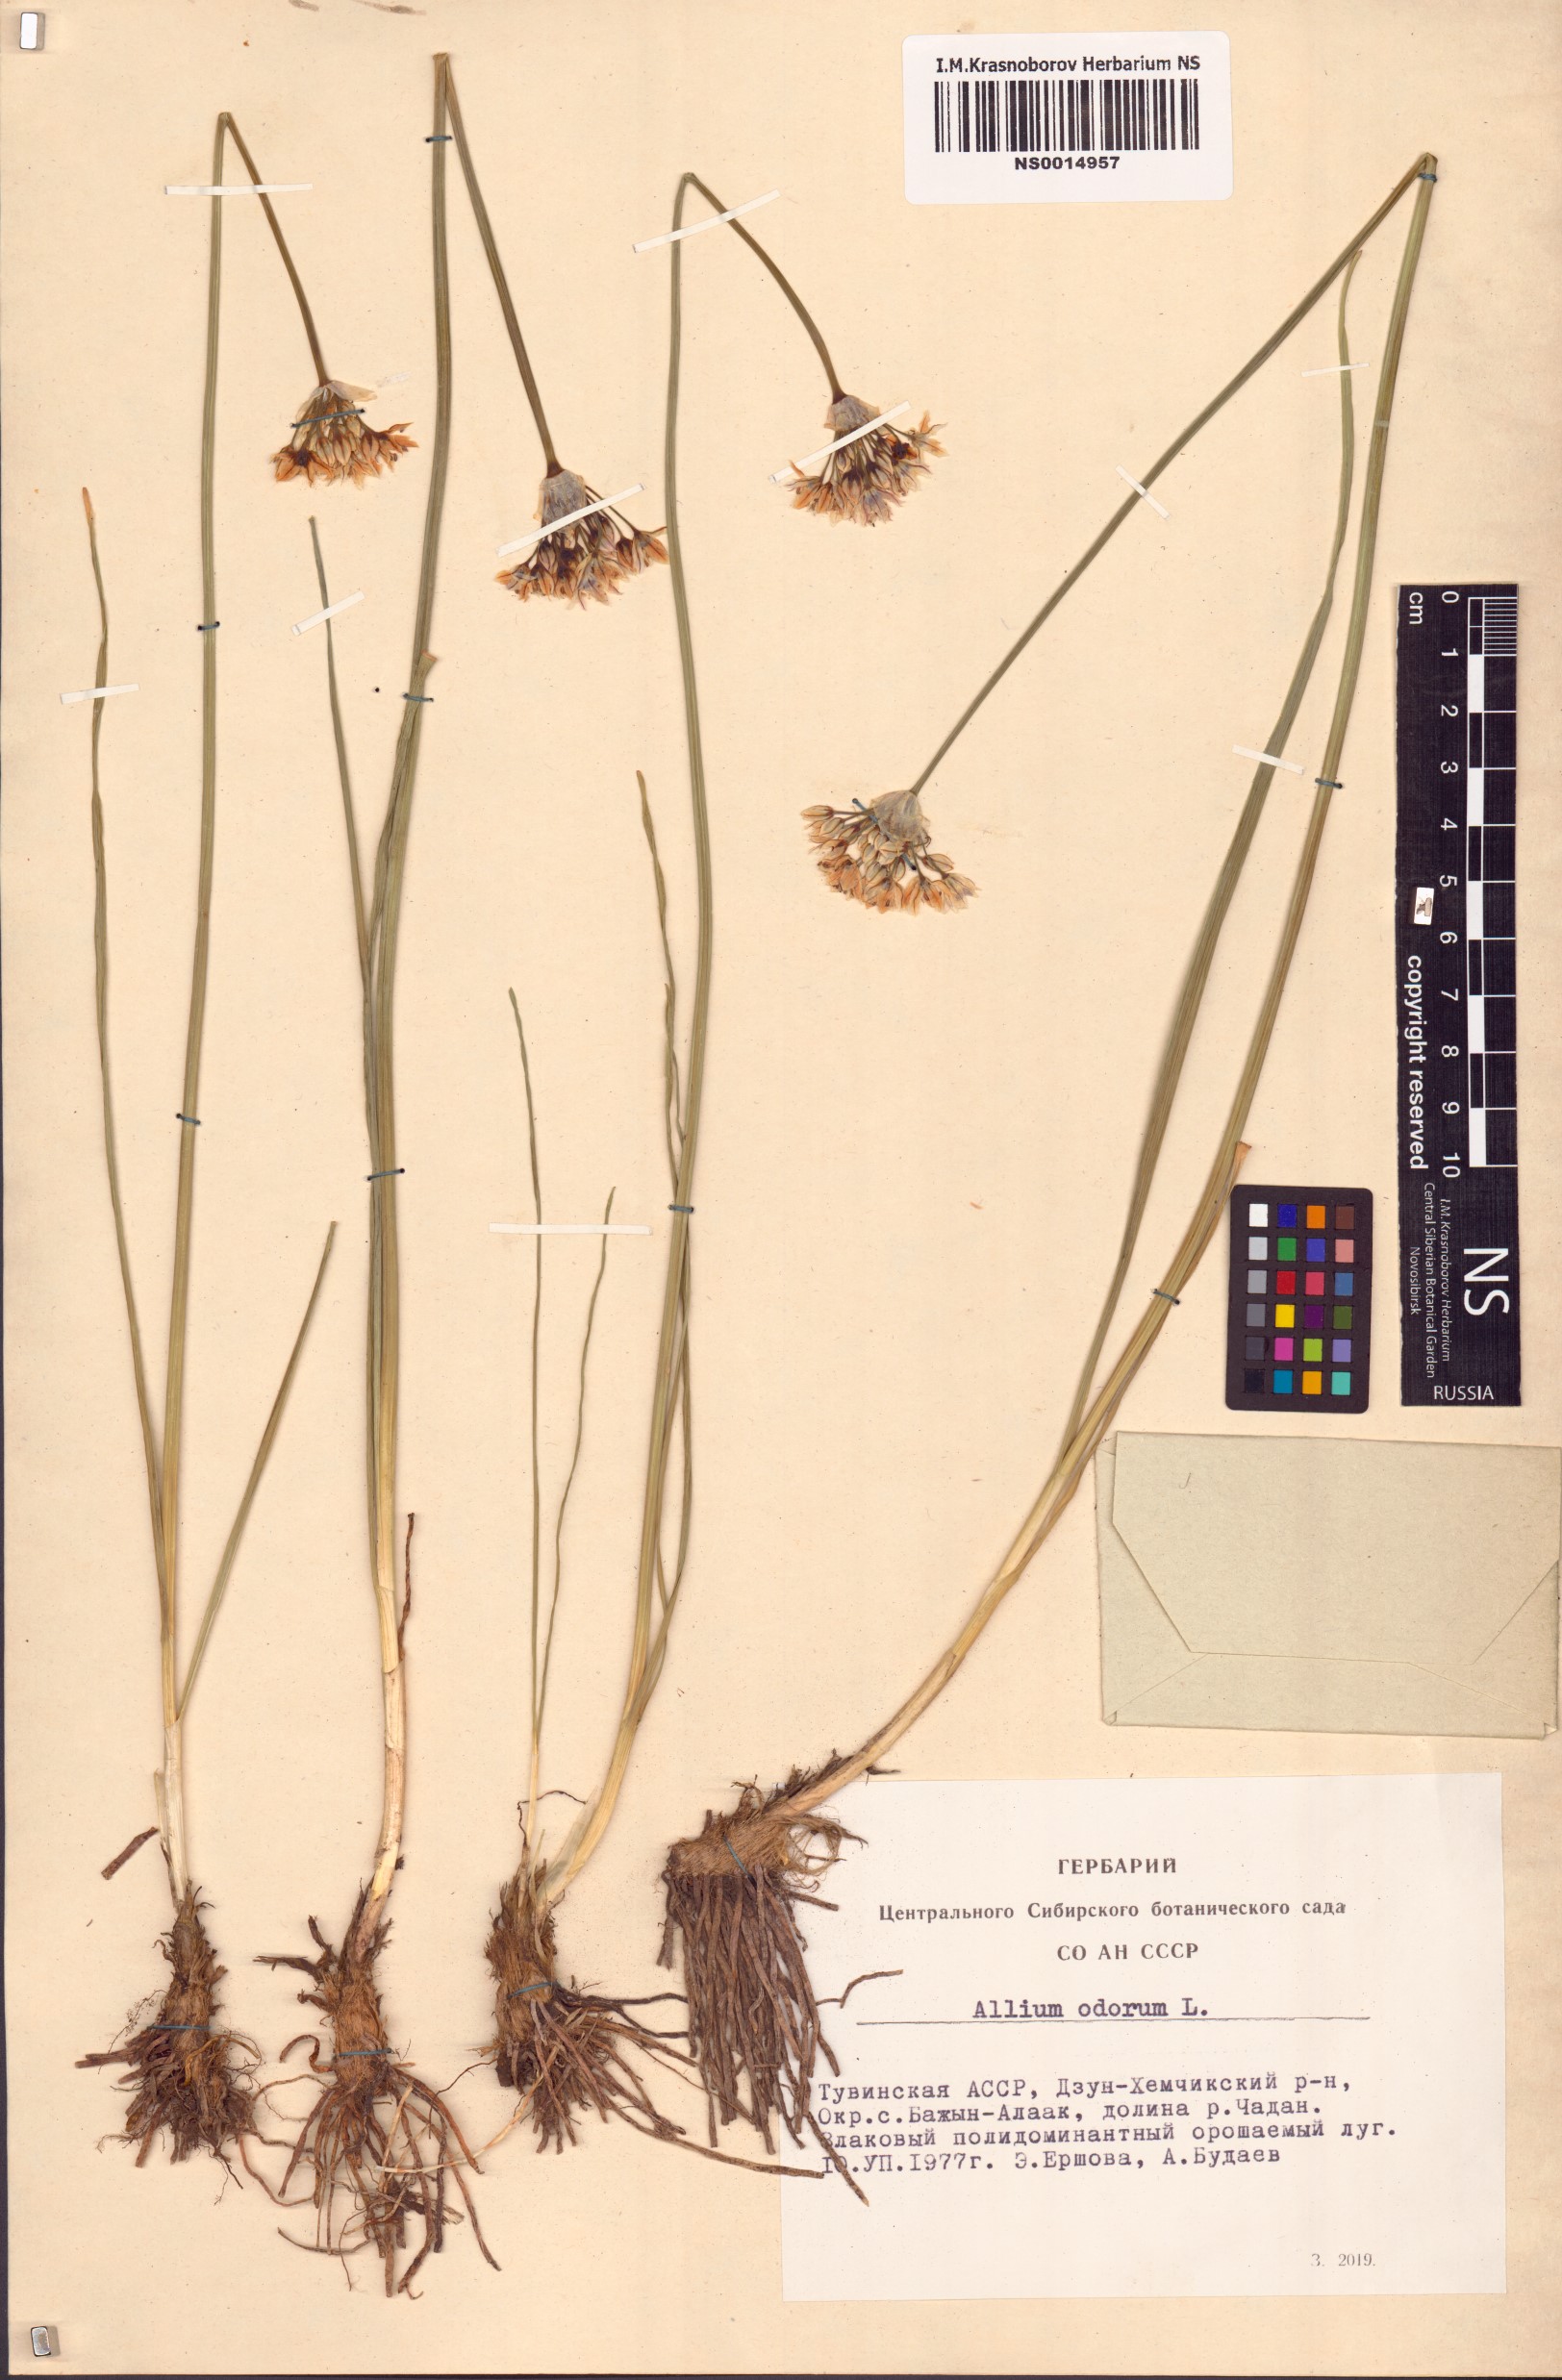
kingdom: Plantae
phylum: Tracheophyta
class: Liliopsida
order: Asparagales
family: Amaryllidaceae
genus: Allium
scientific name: Allium ramosum
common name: Fragrant garlic
